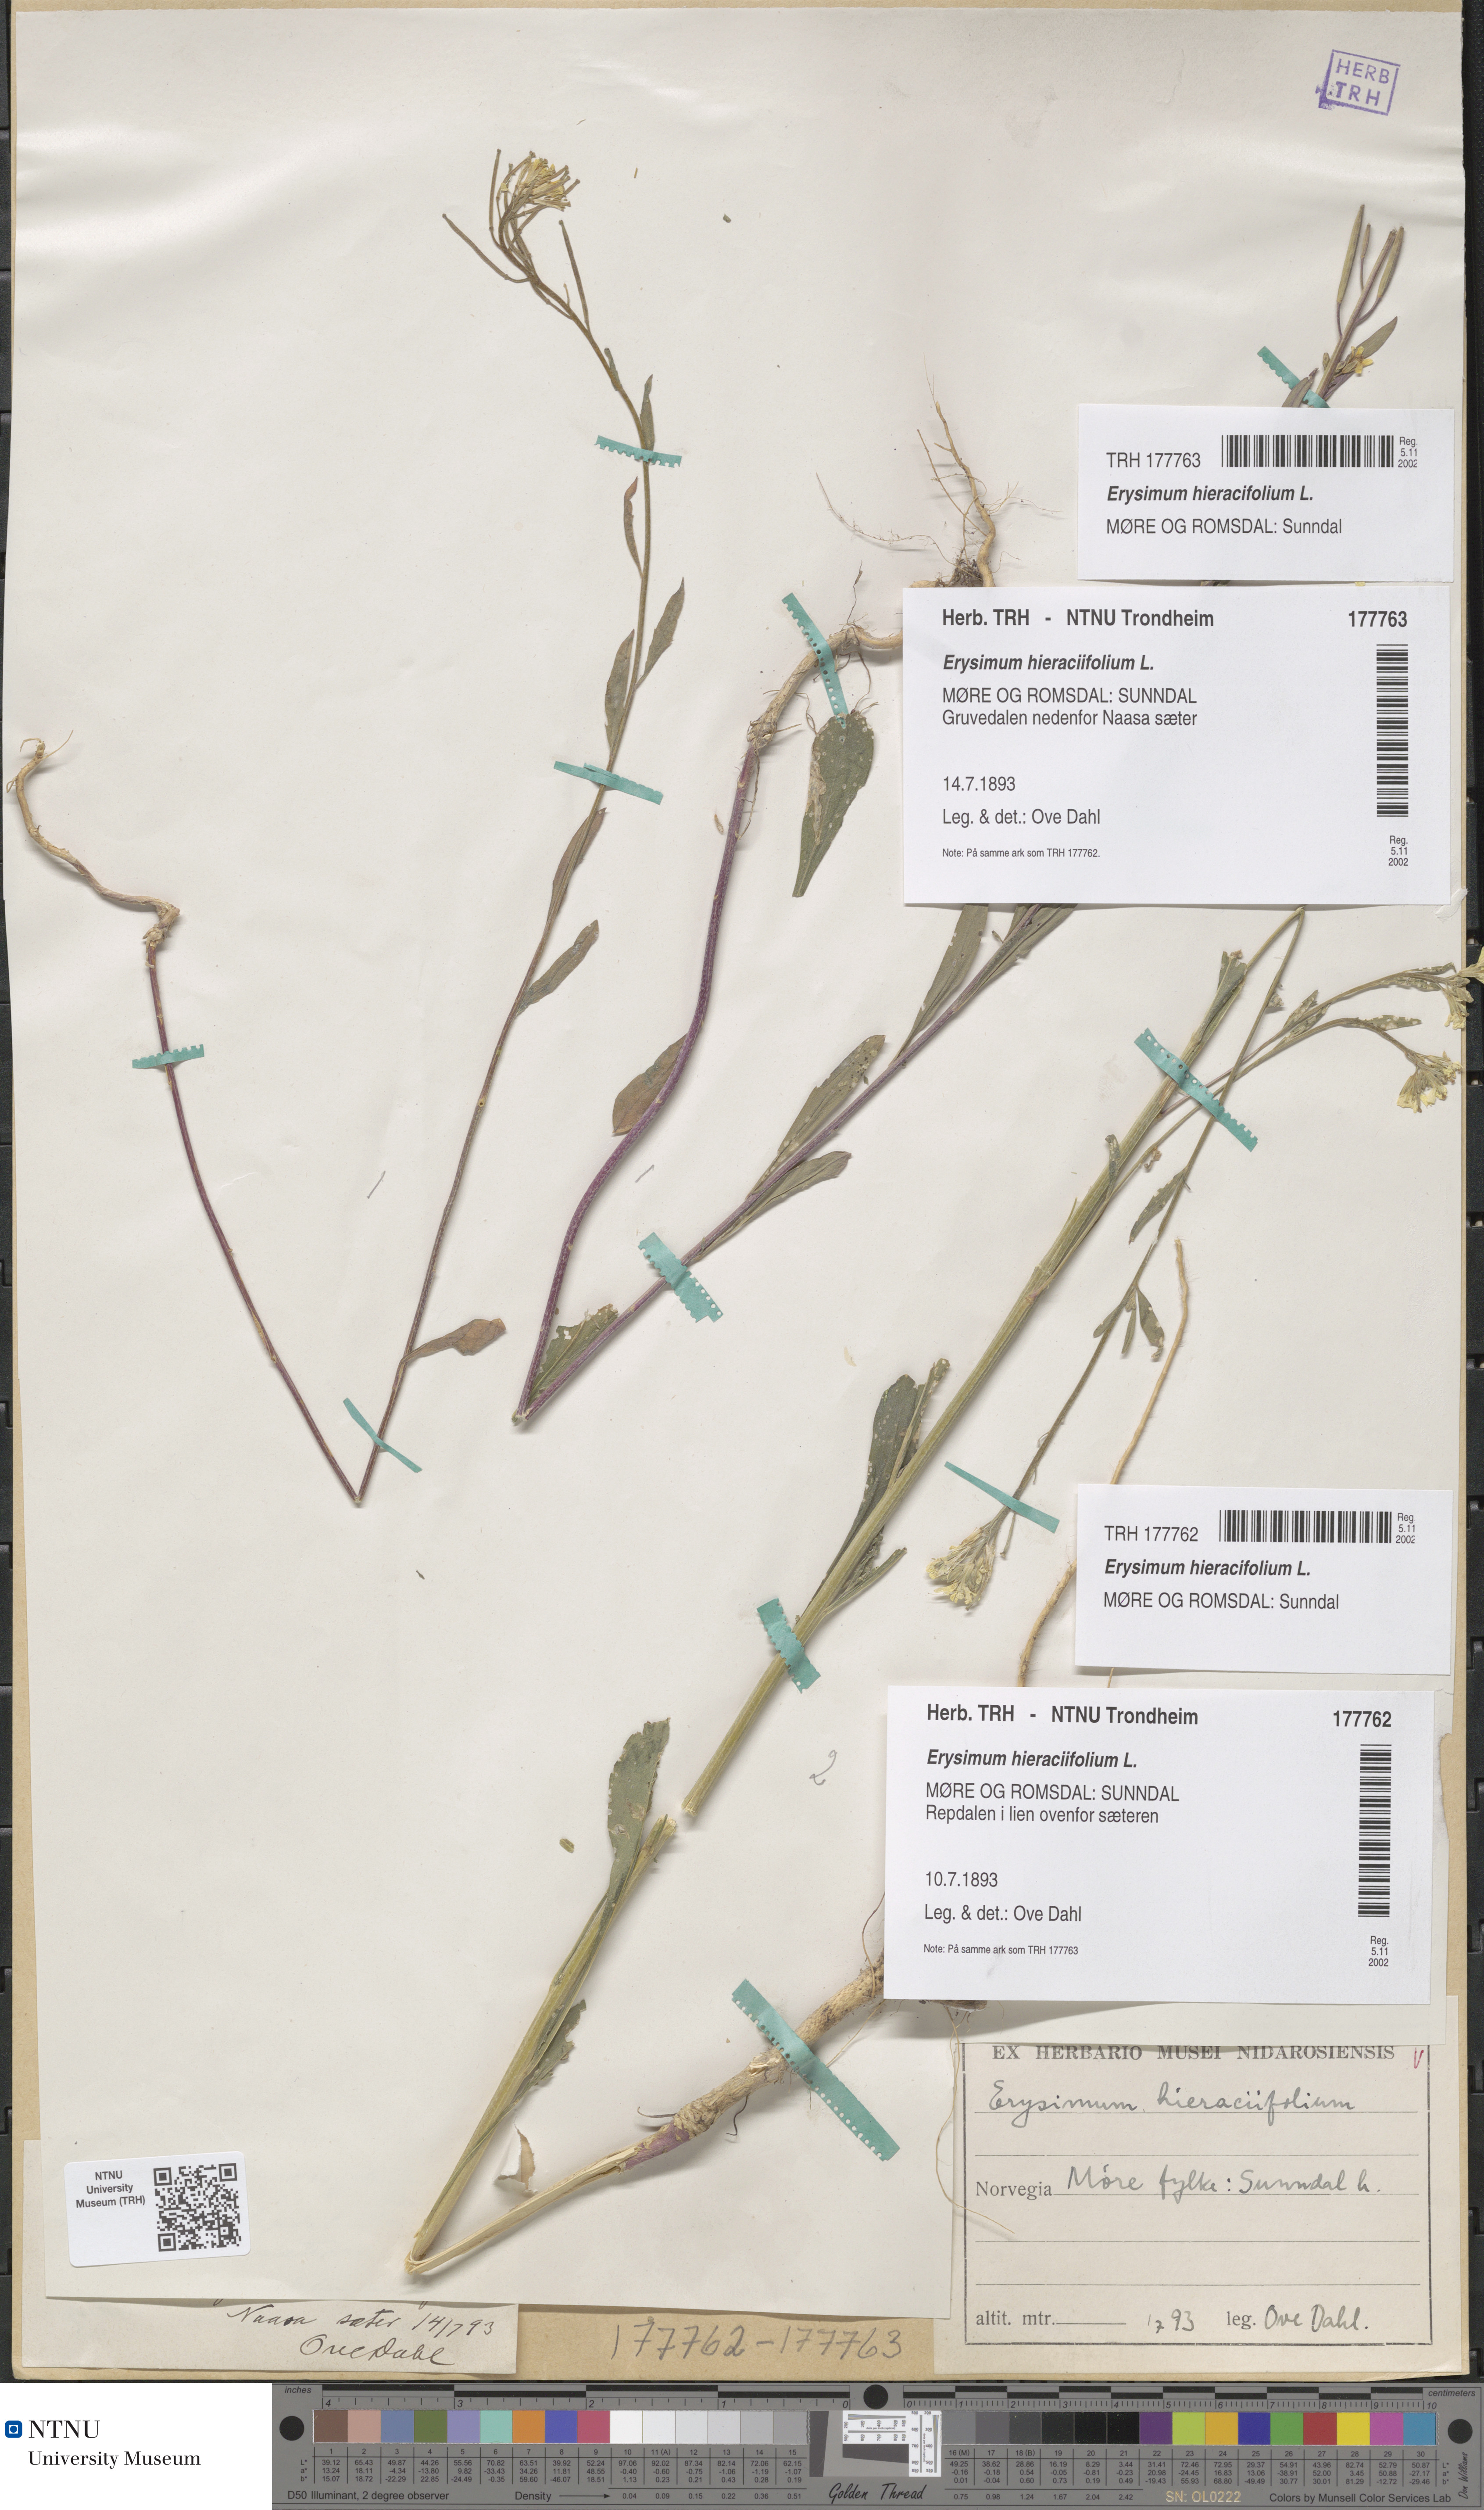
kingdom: Plantae
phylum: Tracheophyta
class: Magnoliopsida
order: Brassicales
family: Brassicaceae
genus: Erysimum
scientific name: Erysimum virgatum
